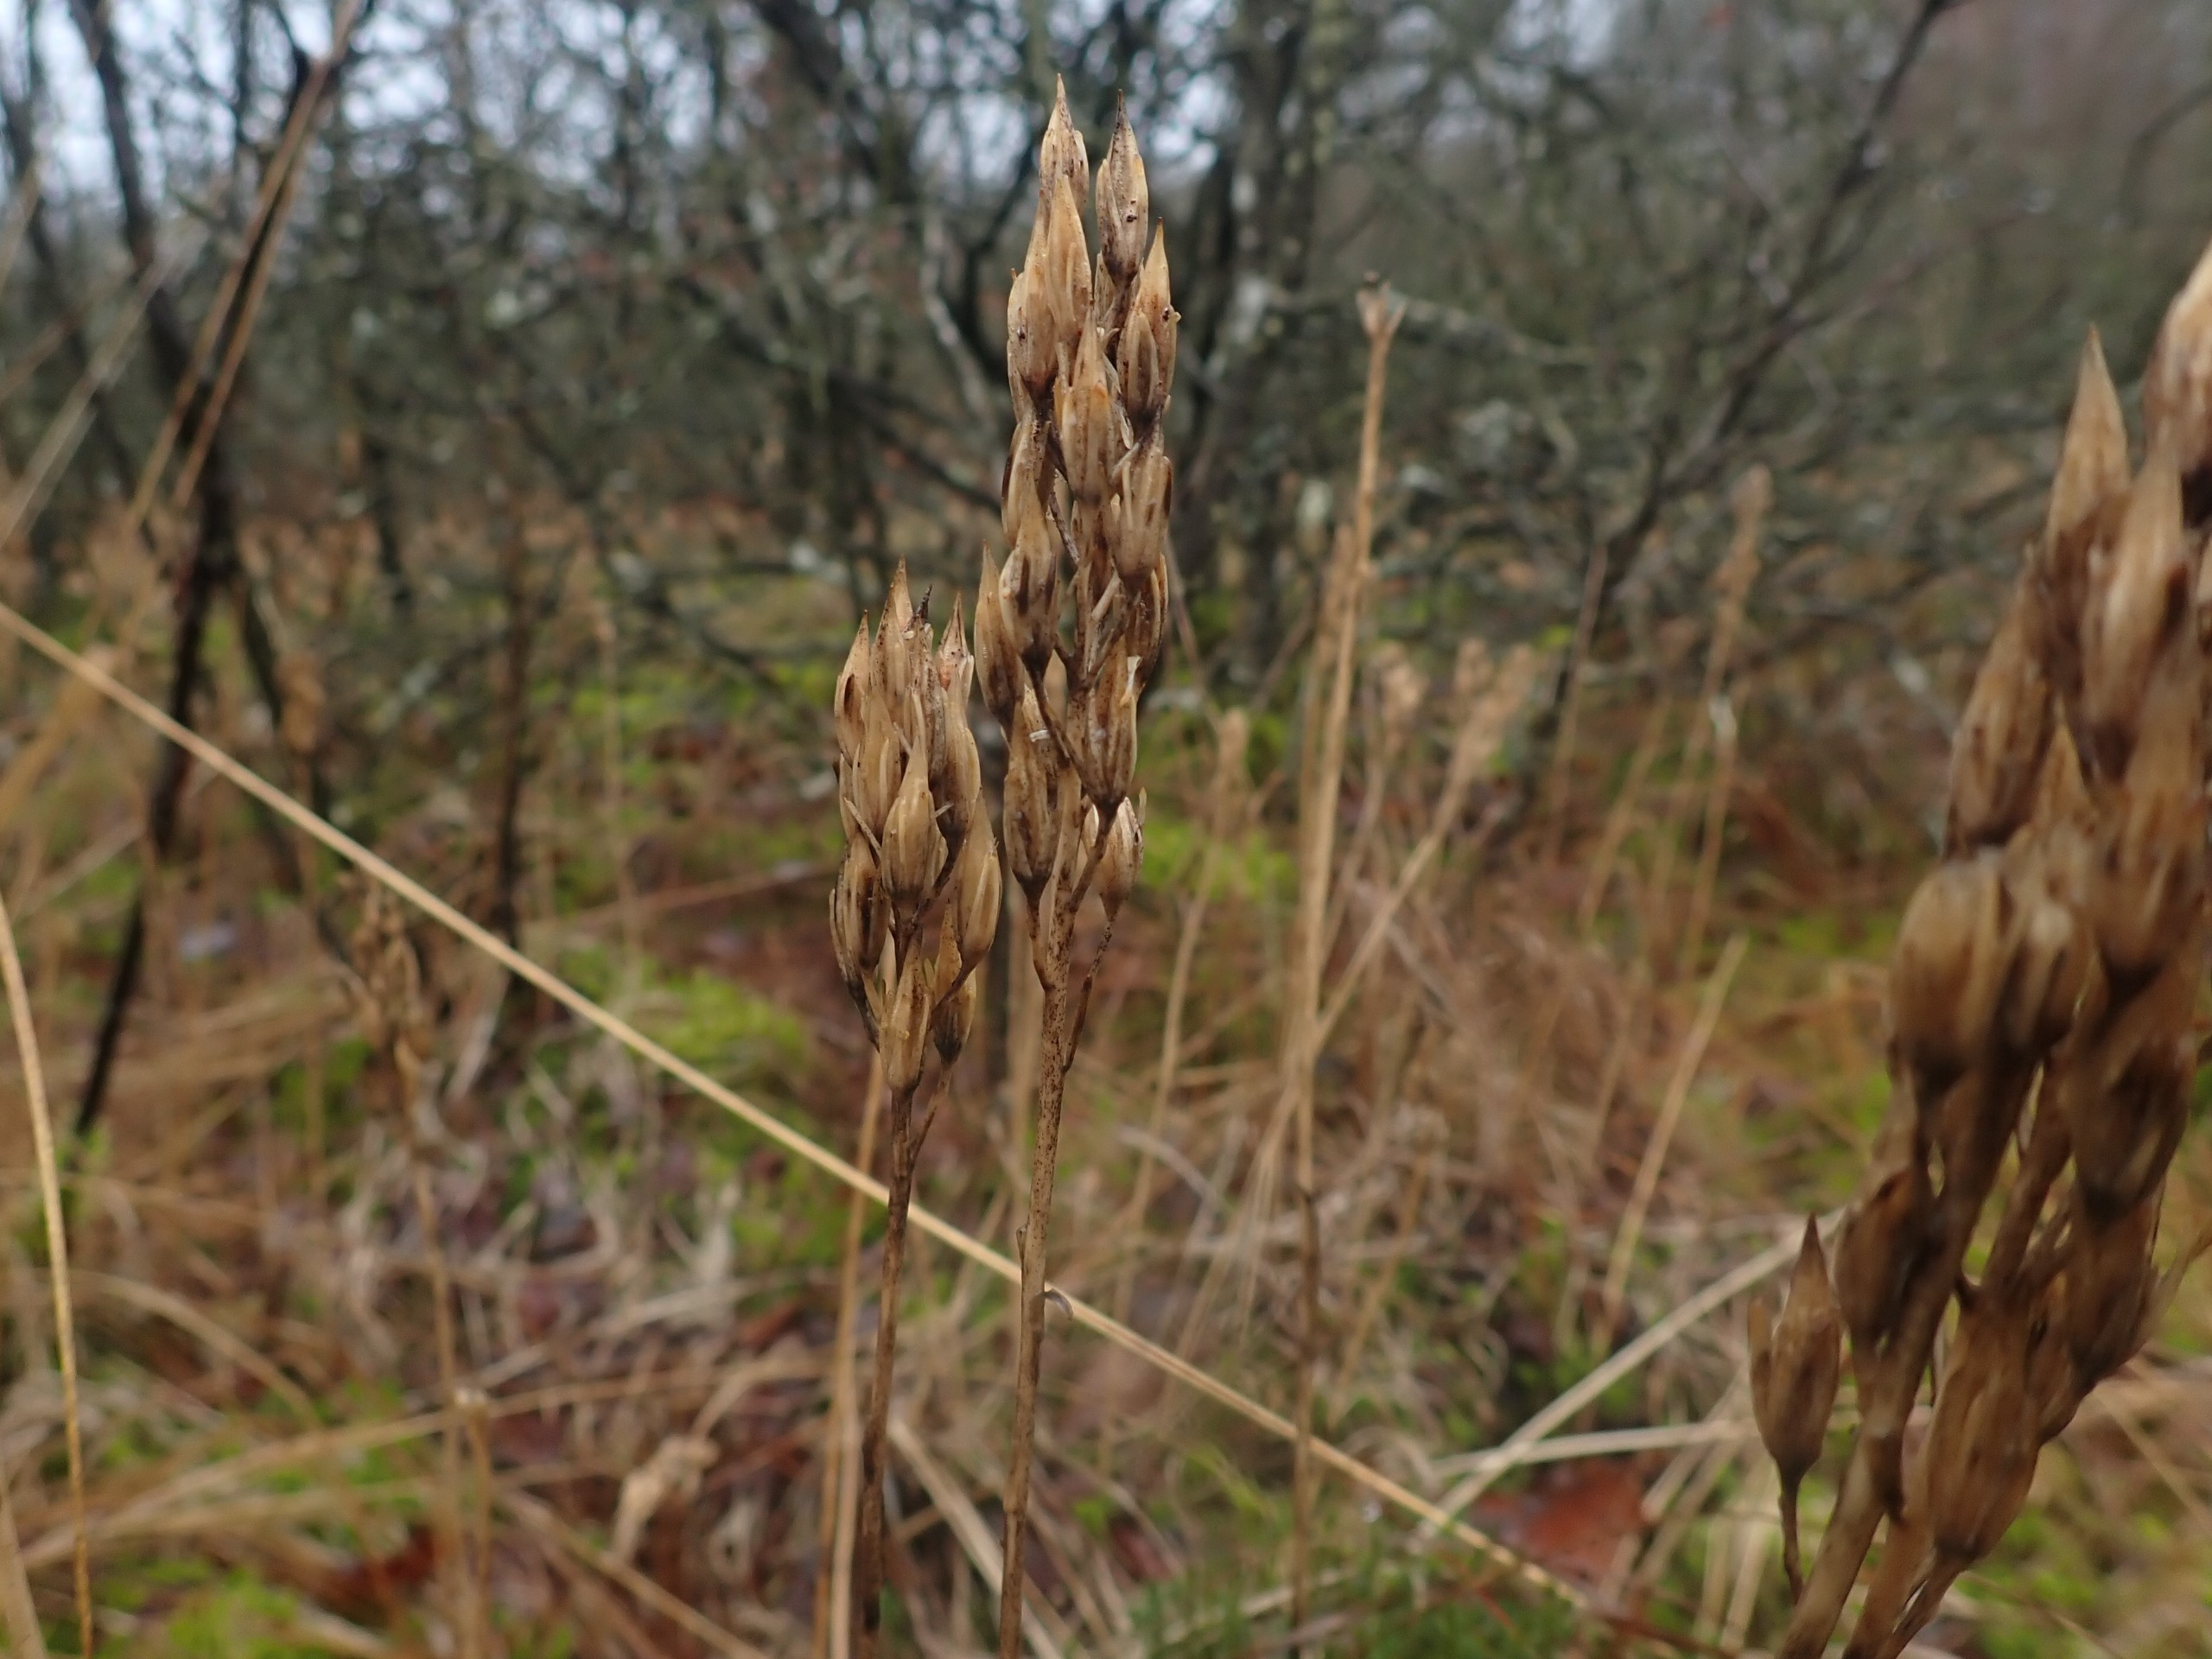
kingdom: Plantae
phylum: Tracheophyta
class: Liliopsida
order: Dioscoreales
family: Nartheciaceae
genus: Narthecium
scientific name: Narthecium ossifragum
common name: Benbræk
